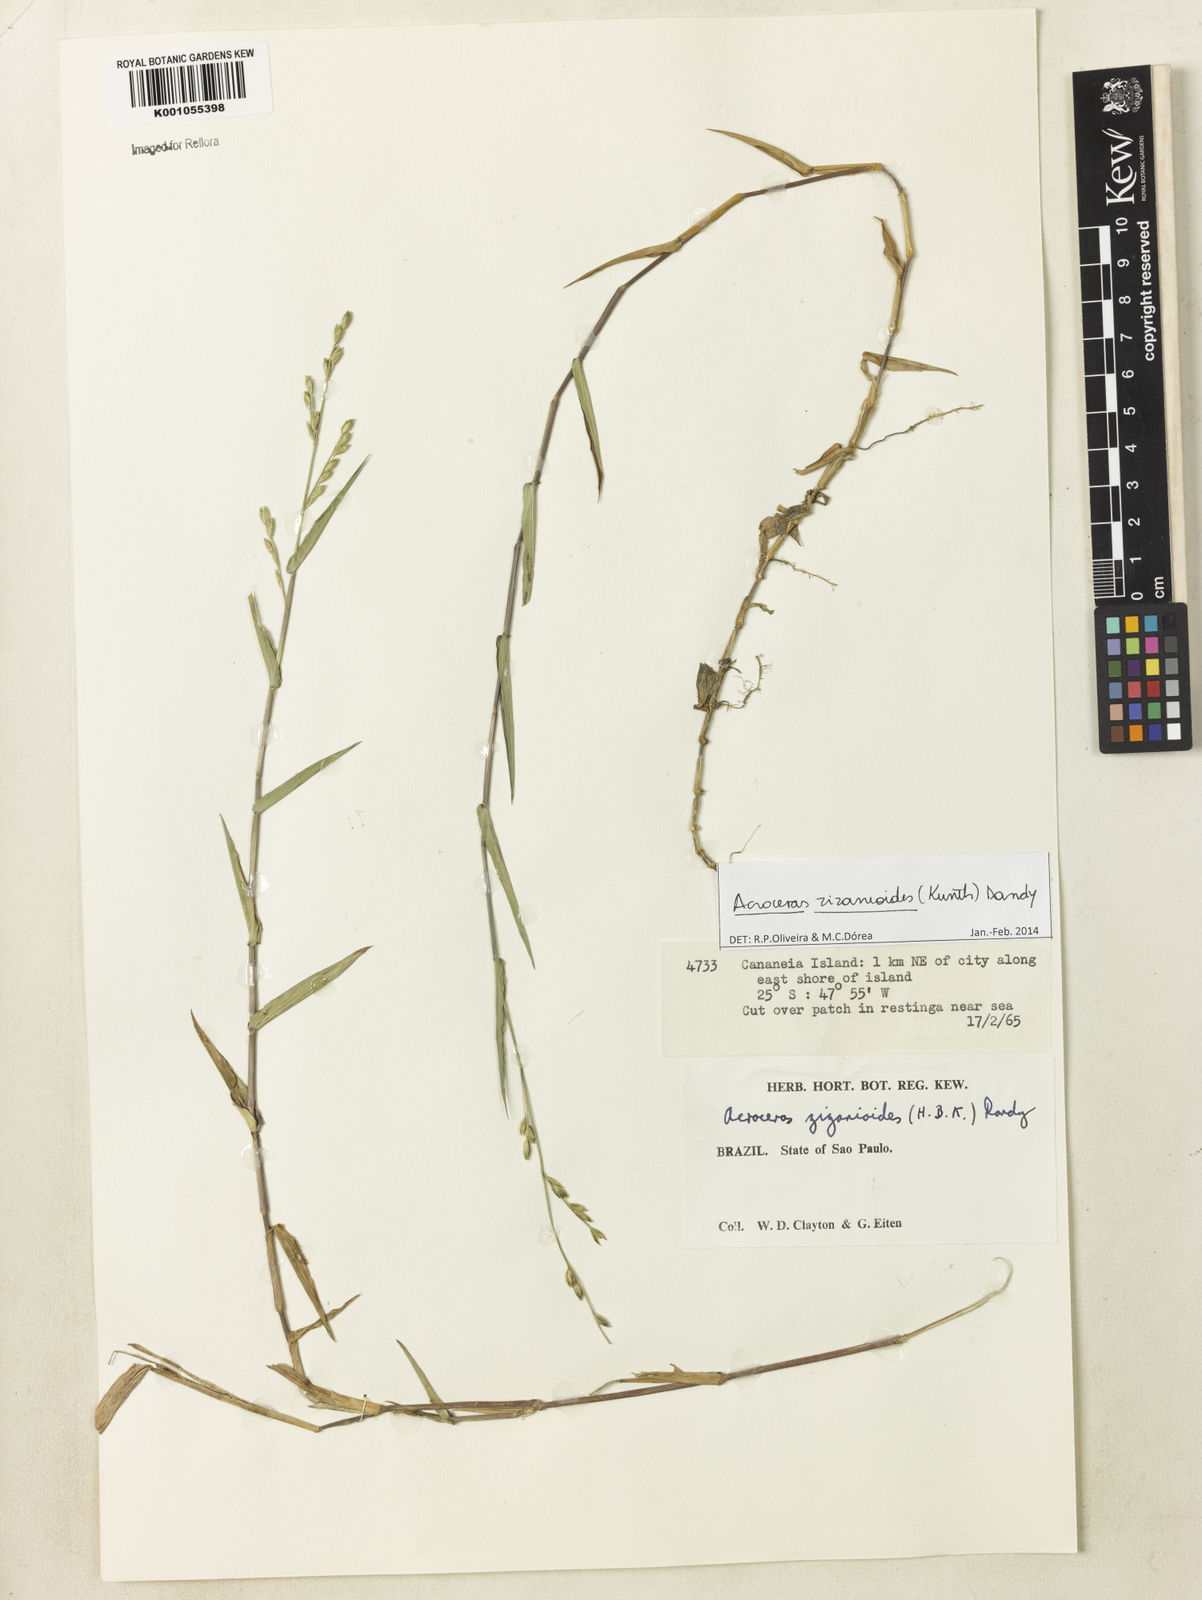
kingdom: Plantae
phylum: Tracheophyta
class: Liliopsida
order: Poales
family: Poaceae
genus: Acroceras
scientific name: Acroceras zizanioides
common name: Oat grass
